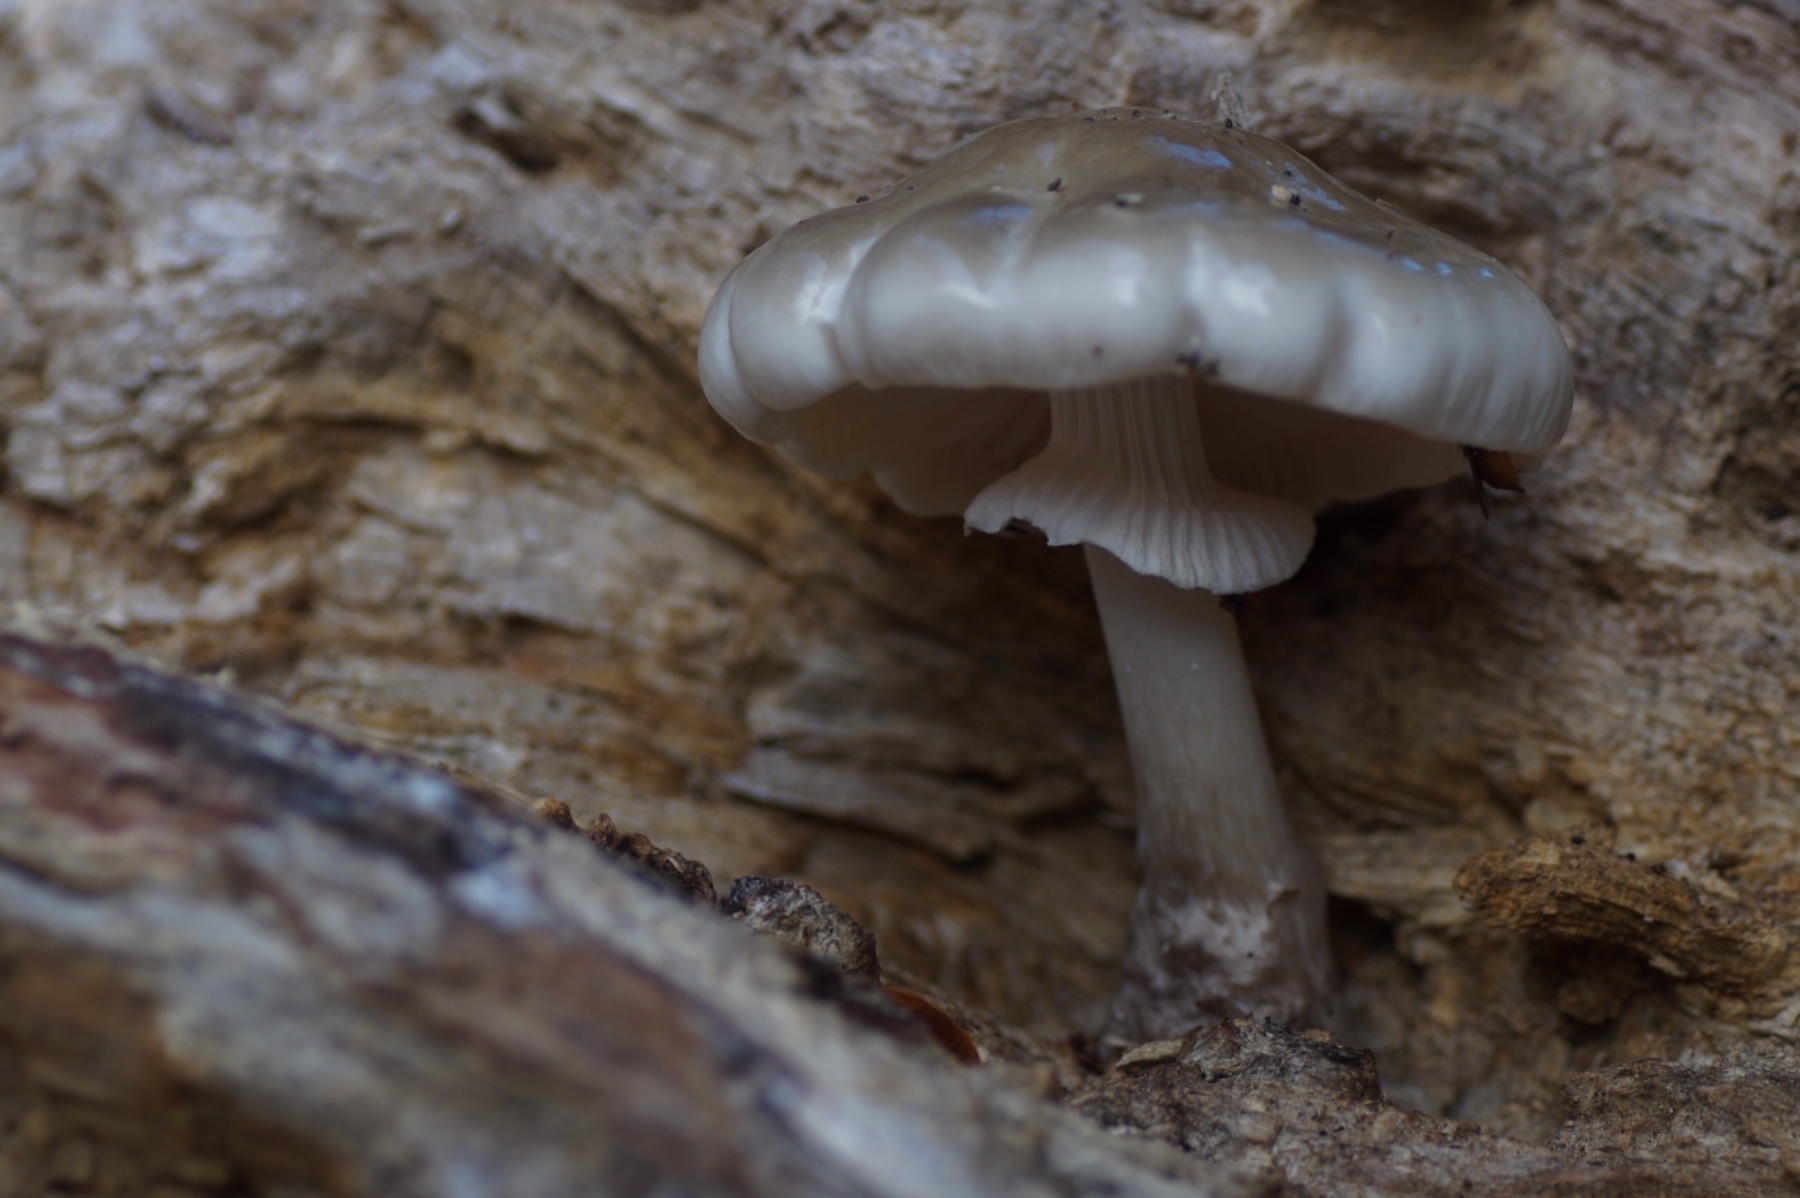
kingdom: Fungi
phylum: Basidiomycota
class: Agaricomycetes
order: Agaricales
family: Physalacriaceae
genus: Mucidula
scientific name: Mucidula mucida
